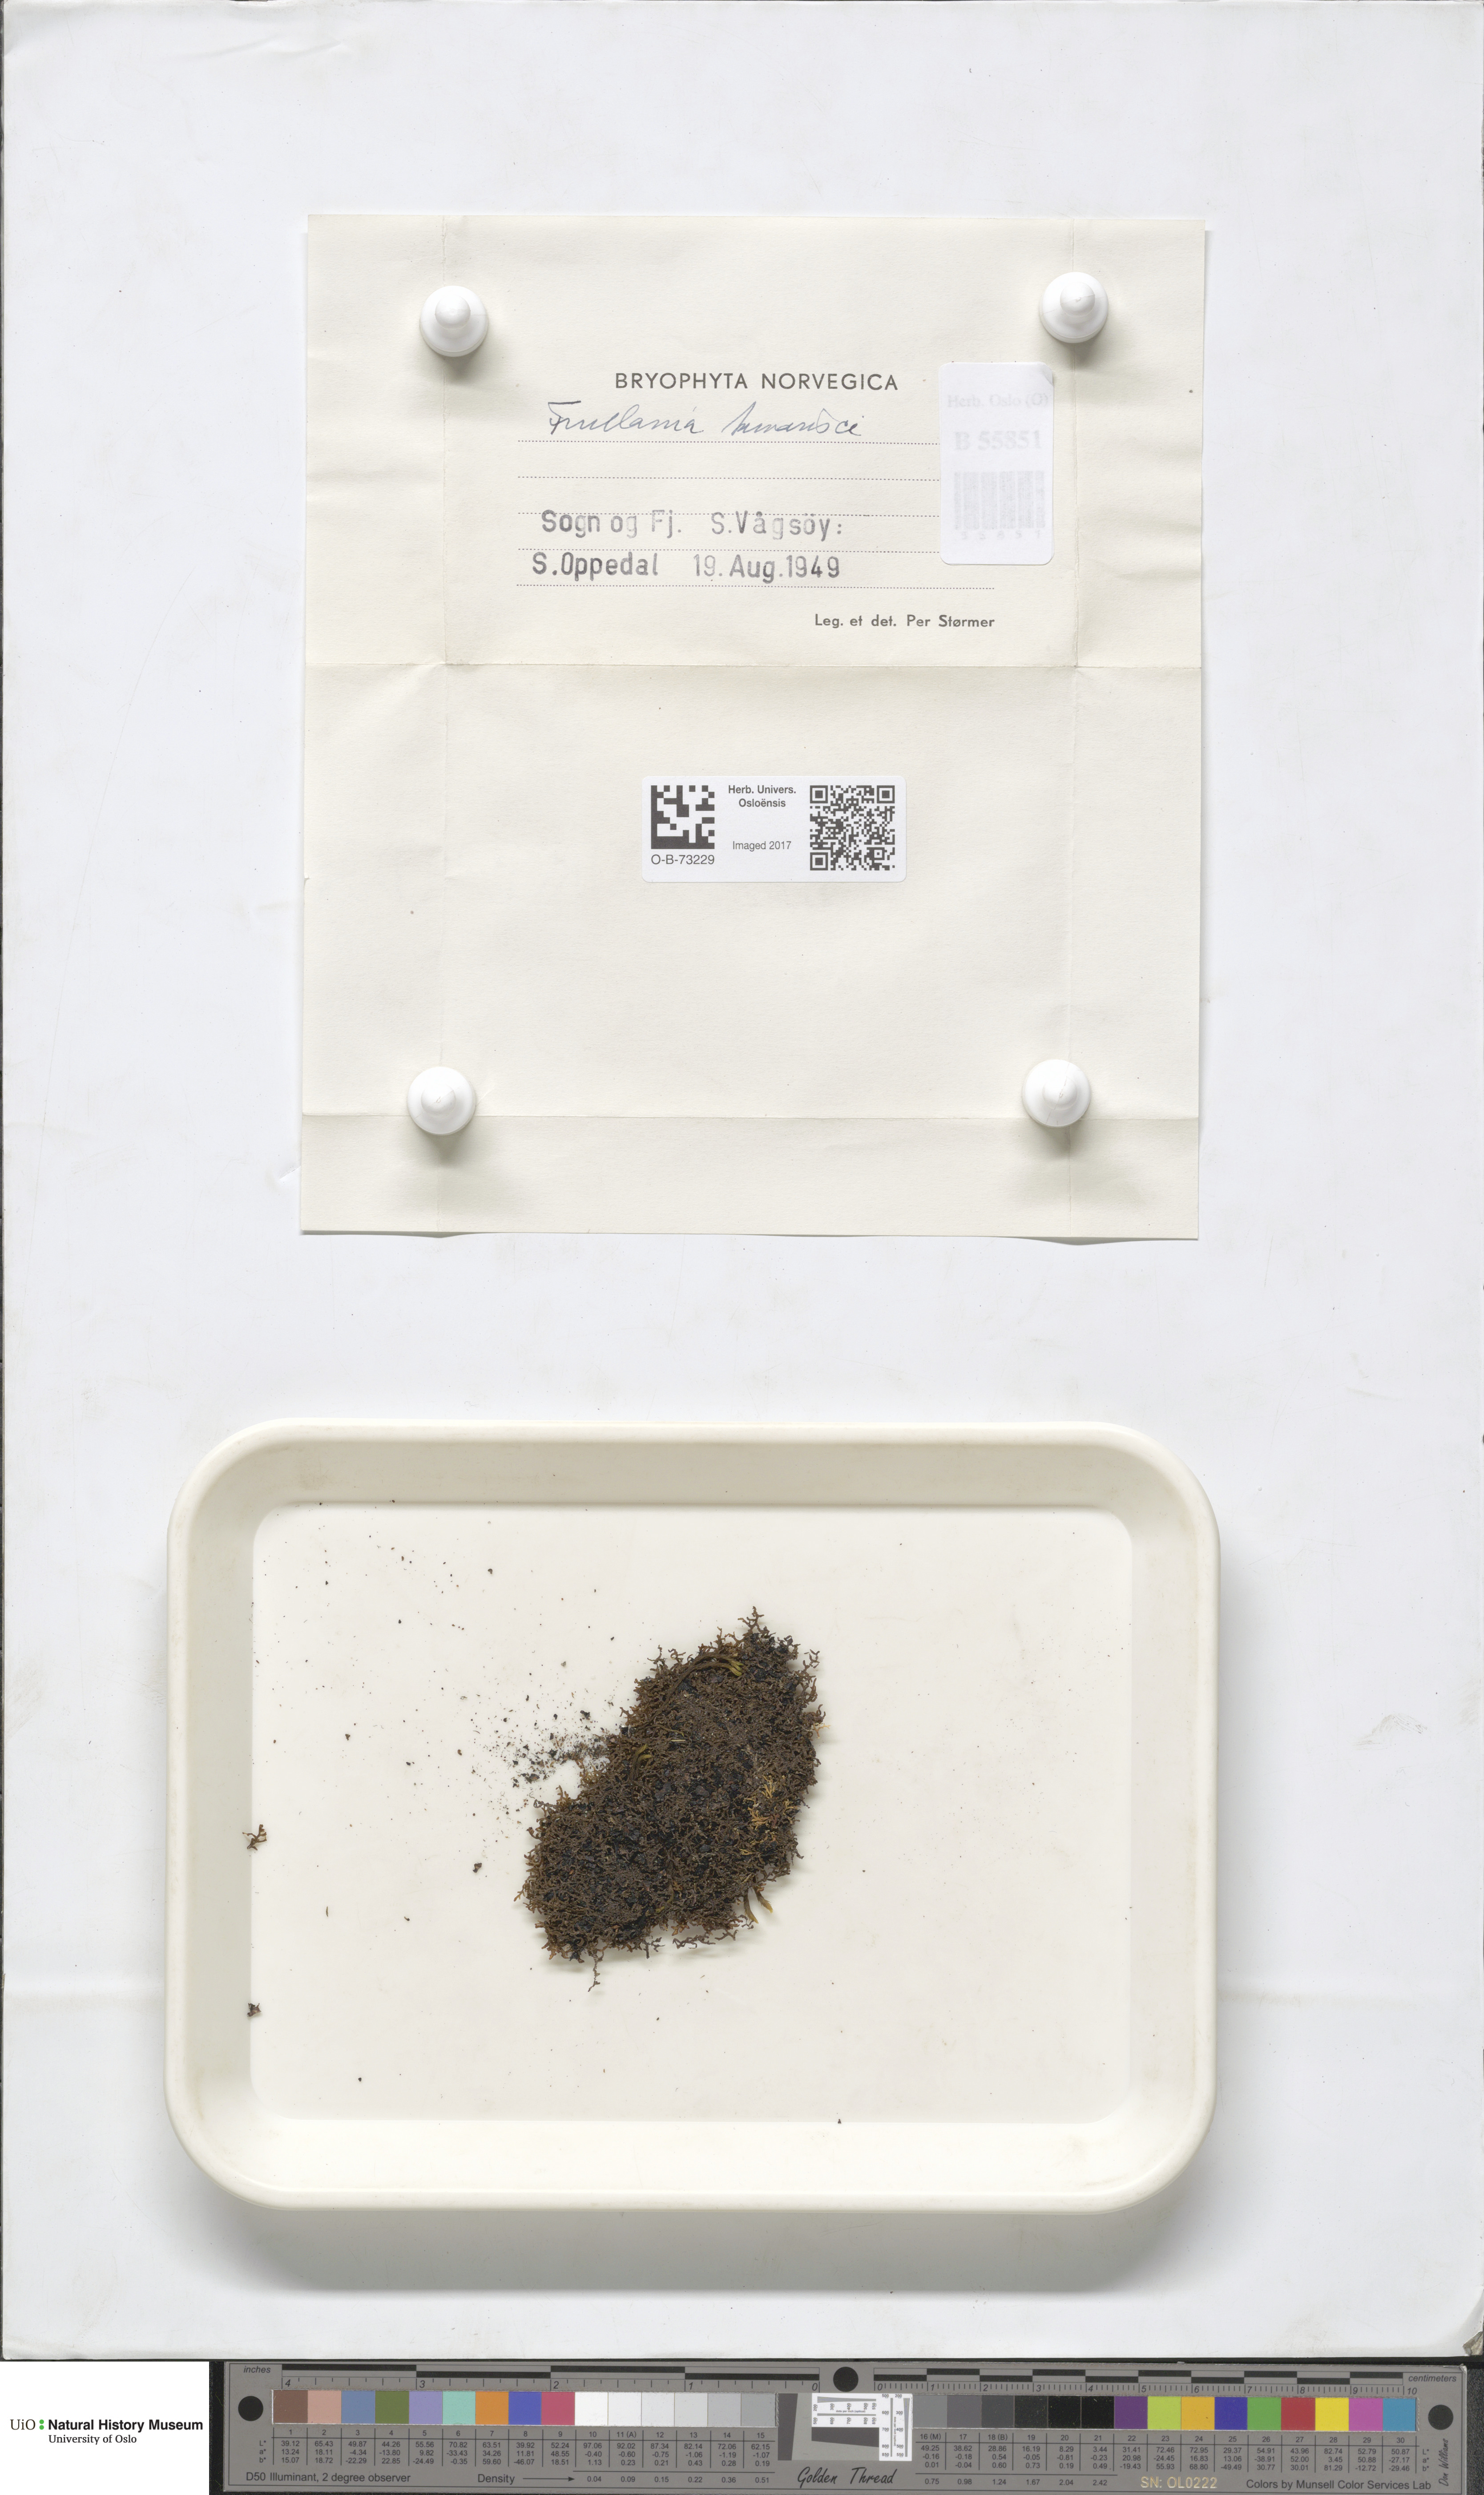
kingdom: Plantae
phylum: Marchantiophyta
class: Jungermanniopsida
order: Porellales
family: Frullaniaceae
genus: Frullania
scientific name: Frullania tamarisci
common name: Tamarisk scalewort
